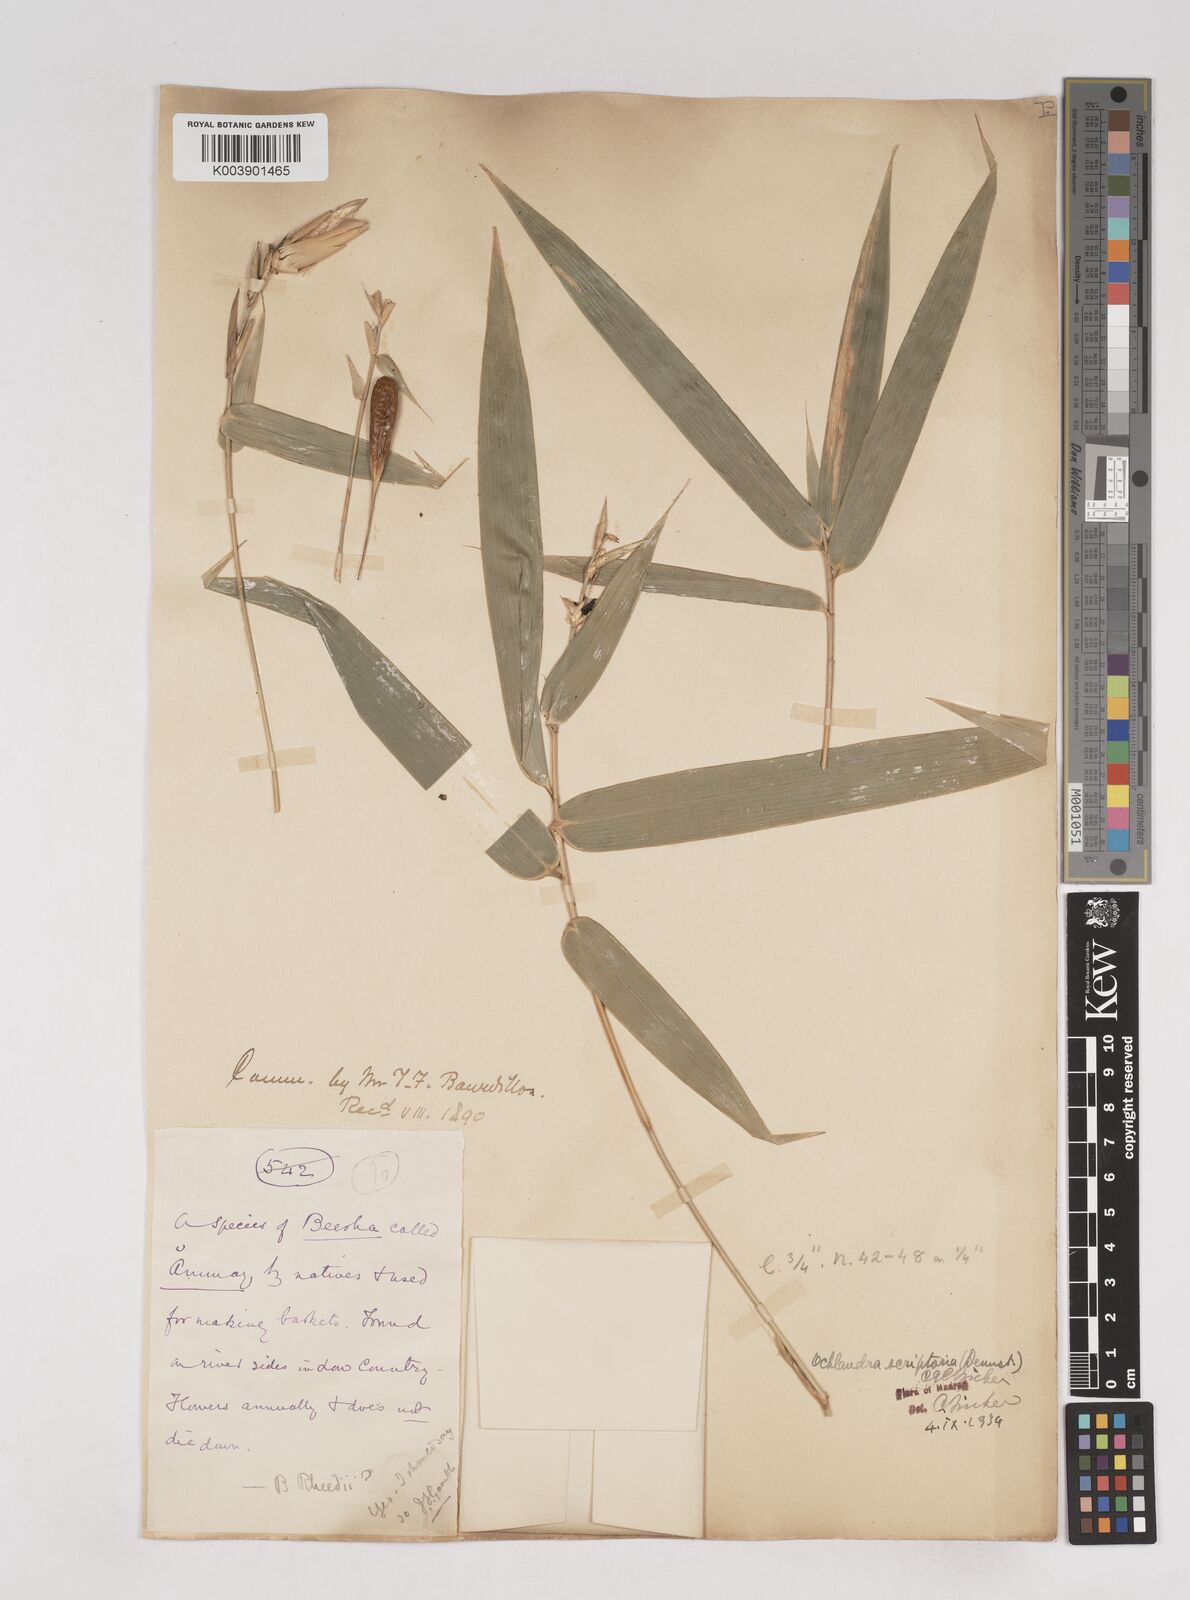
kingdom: Plantae
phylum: Tracheophyta
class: Liliopsida
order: Poales
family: Poaceae
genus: Ochlandra
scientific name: Ochlandra scriptoria
